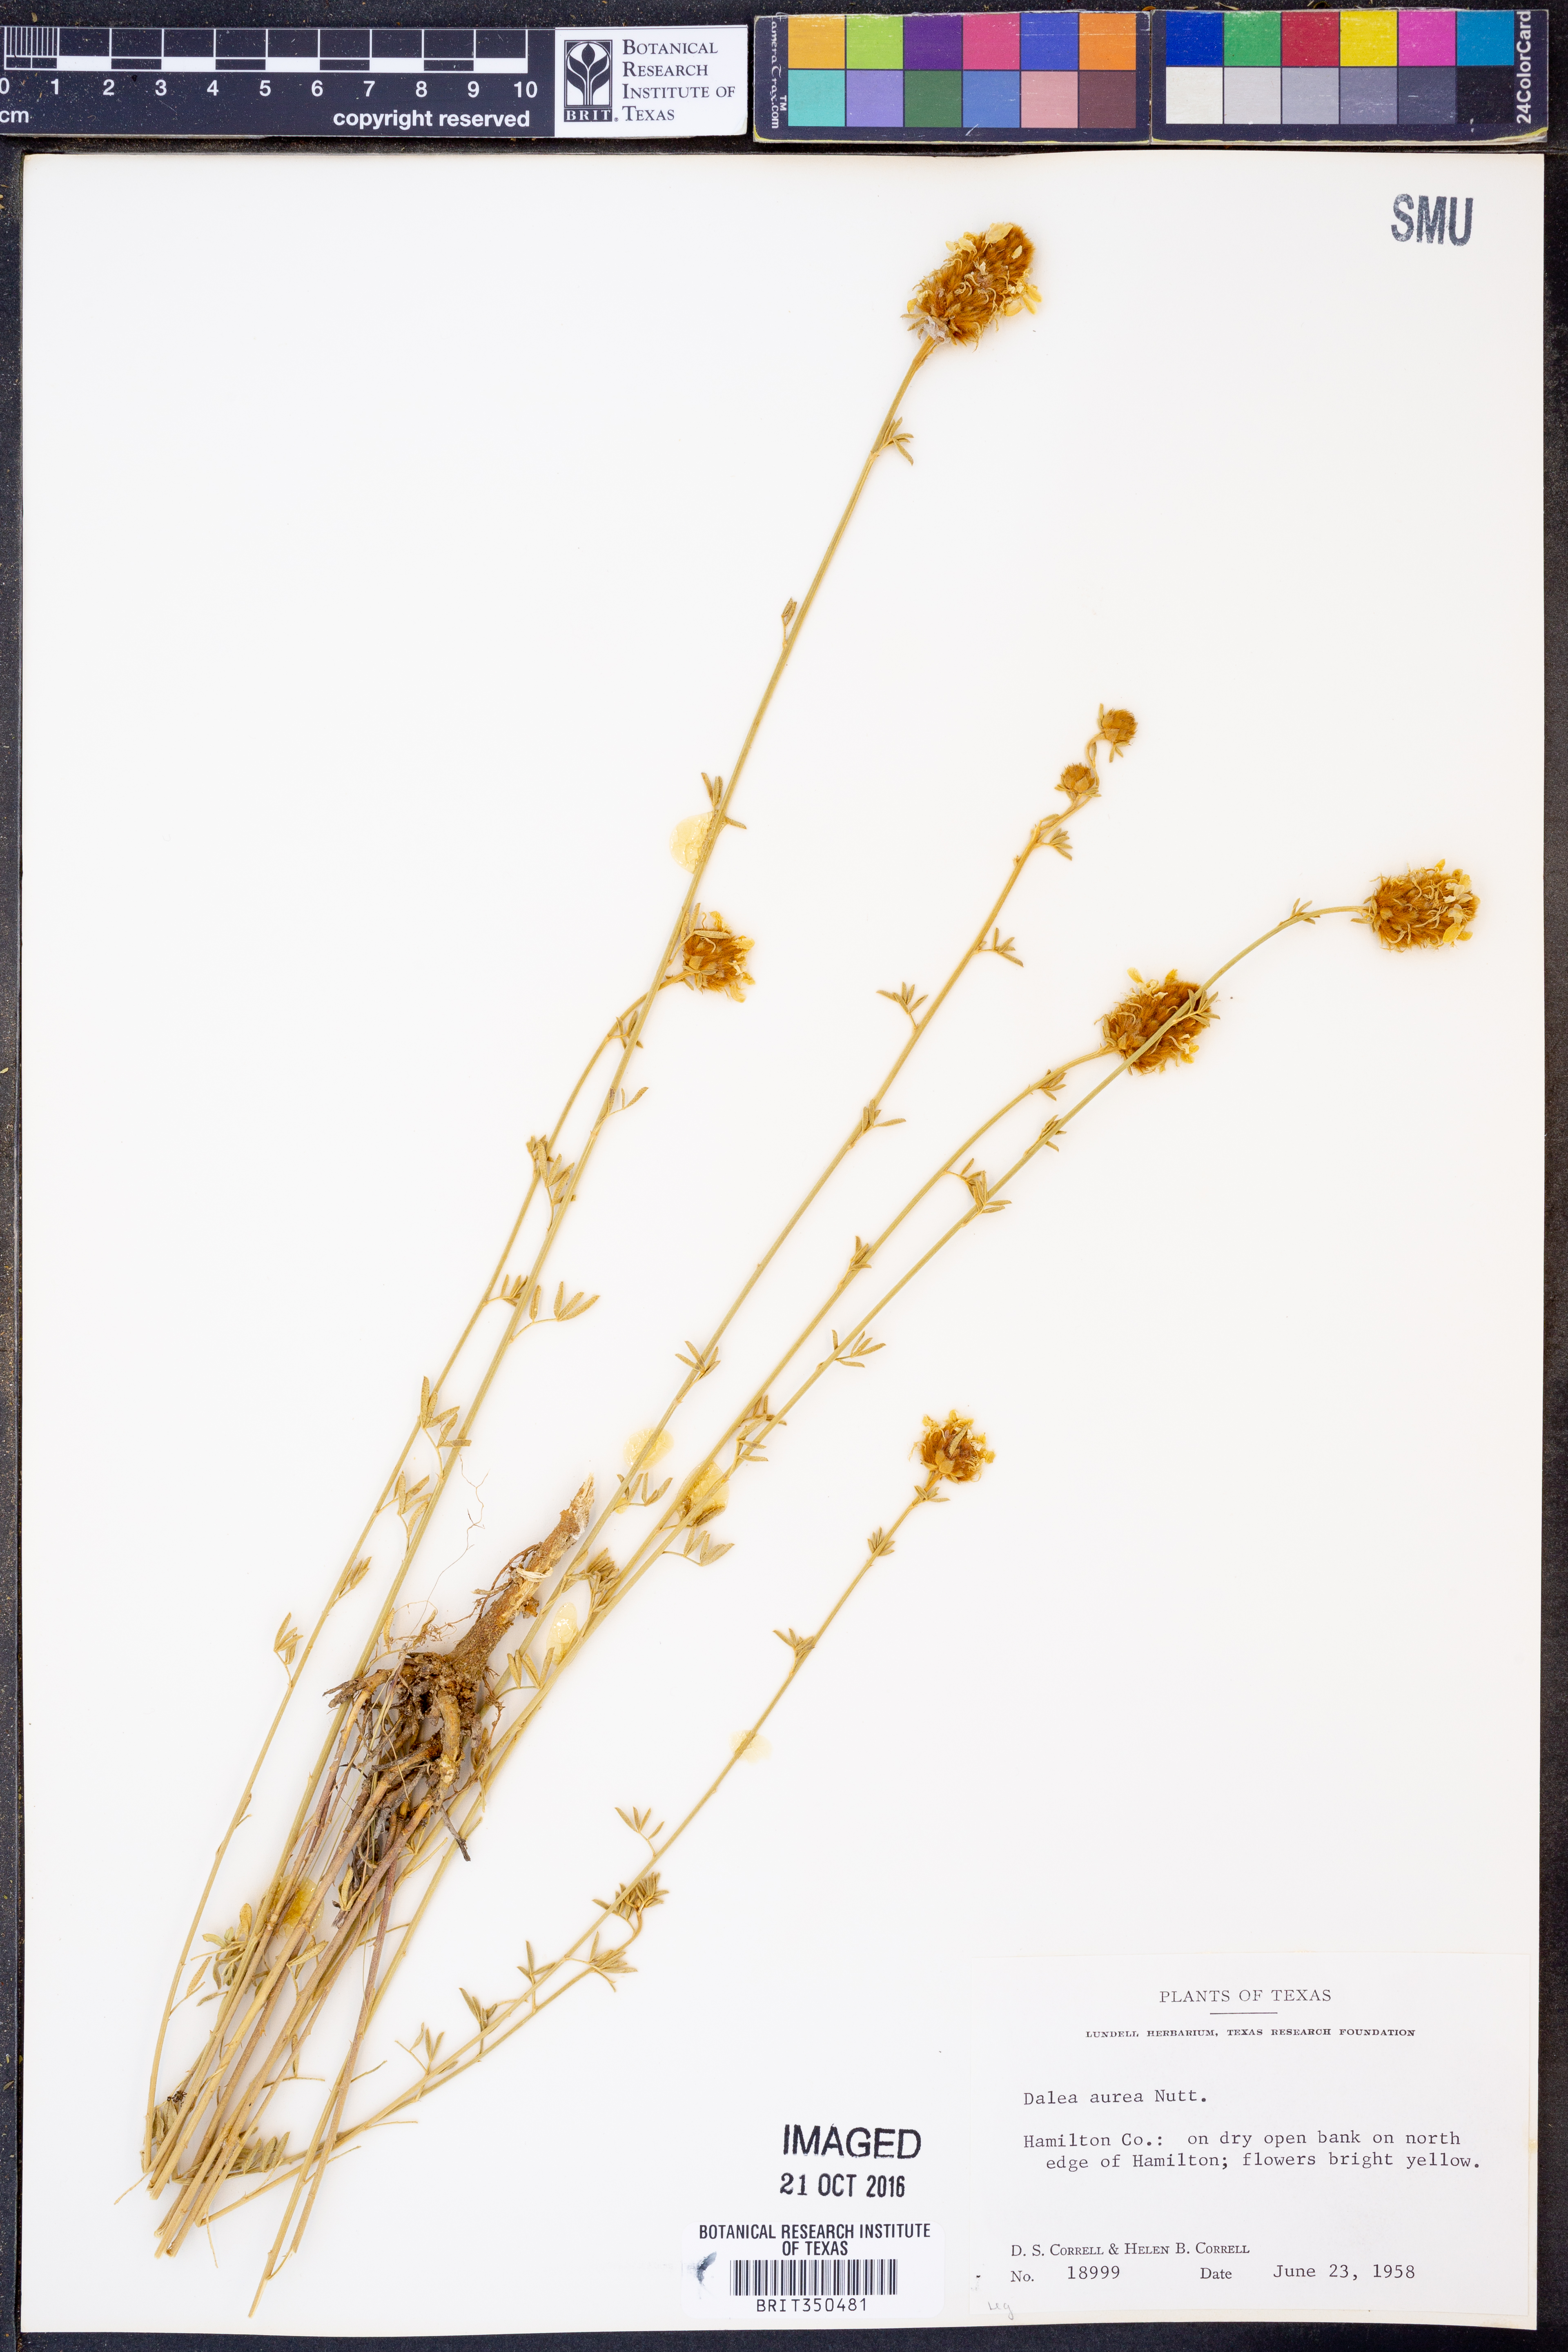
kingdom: Plantae
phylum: Tracheophyta
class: Magnoliopsida
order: Fabales
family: Fabaceae
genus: Dalea
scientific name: Dalea aurea
